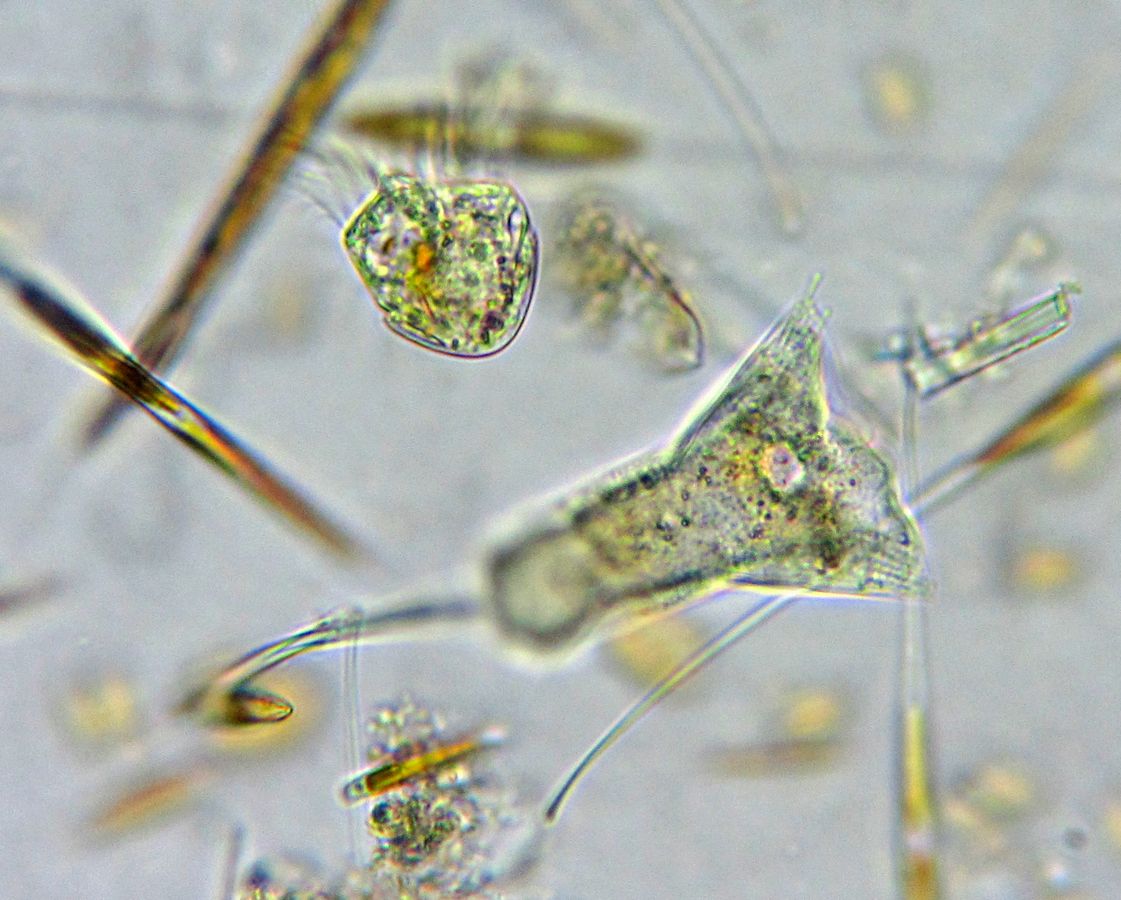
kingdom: Chromista
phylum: Ciliophora
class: Kinetofragminophora
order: Suctorida
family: Acinetidae
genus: Acineta
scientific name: Acineta tuberosa
